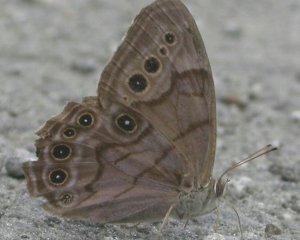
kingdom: Animalia
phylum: Arthropoda
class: Insecta
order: Lepidoptera
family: Nymphalidae
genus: Lethe
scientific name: Lethe anthedon
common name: Northern Pearly-Eye
